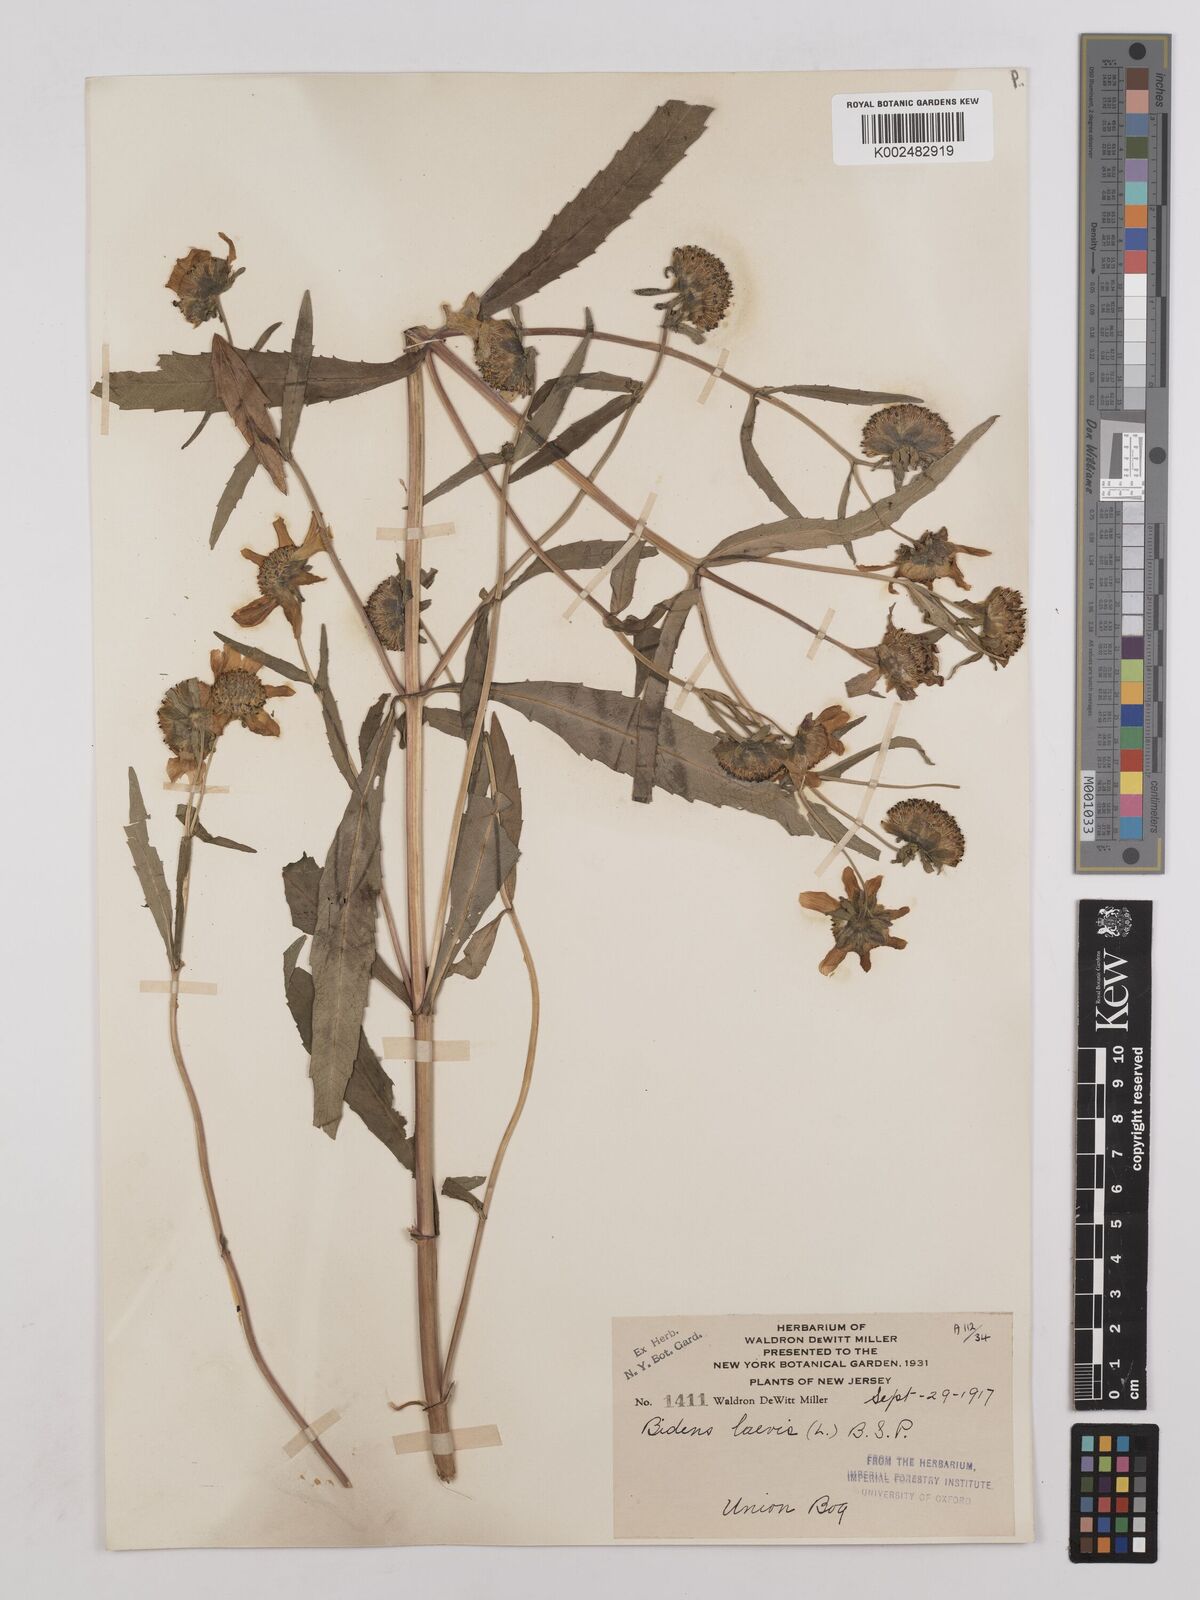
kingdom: Plantae
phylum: Tracheophyta
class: Magnoliopsida
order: Asterales
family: Asteraceae
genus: Bidens
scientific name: Bidens laevis
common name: Larger bur-marigold
